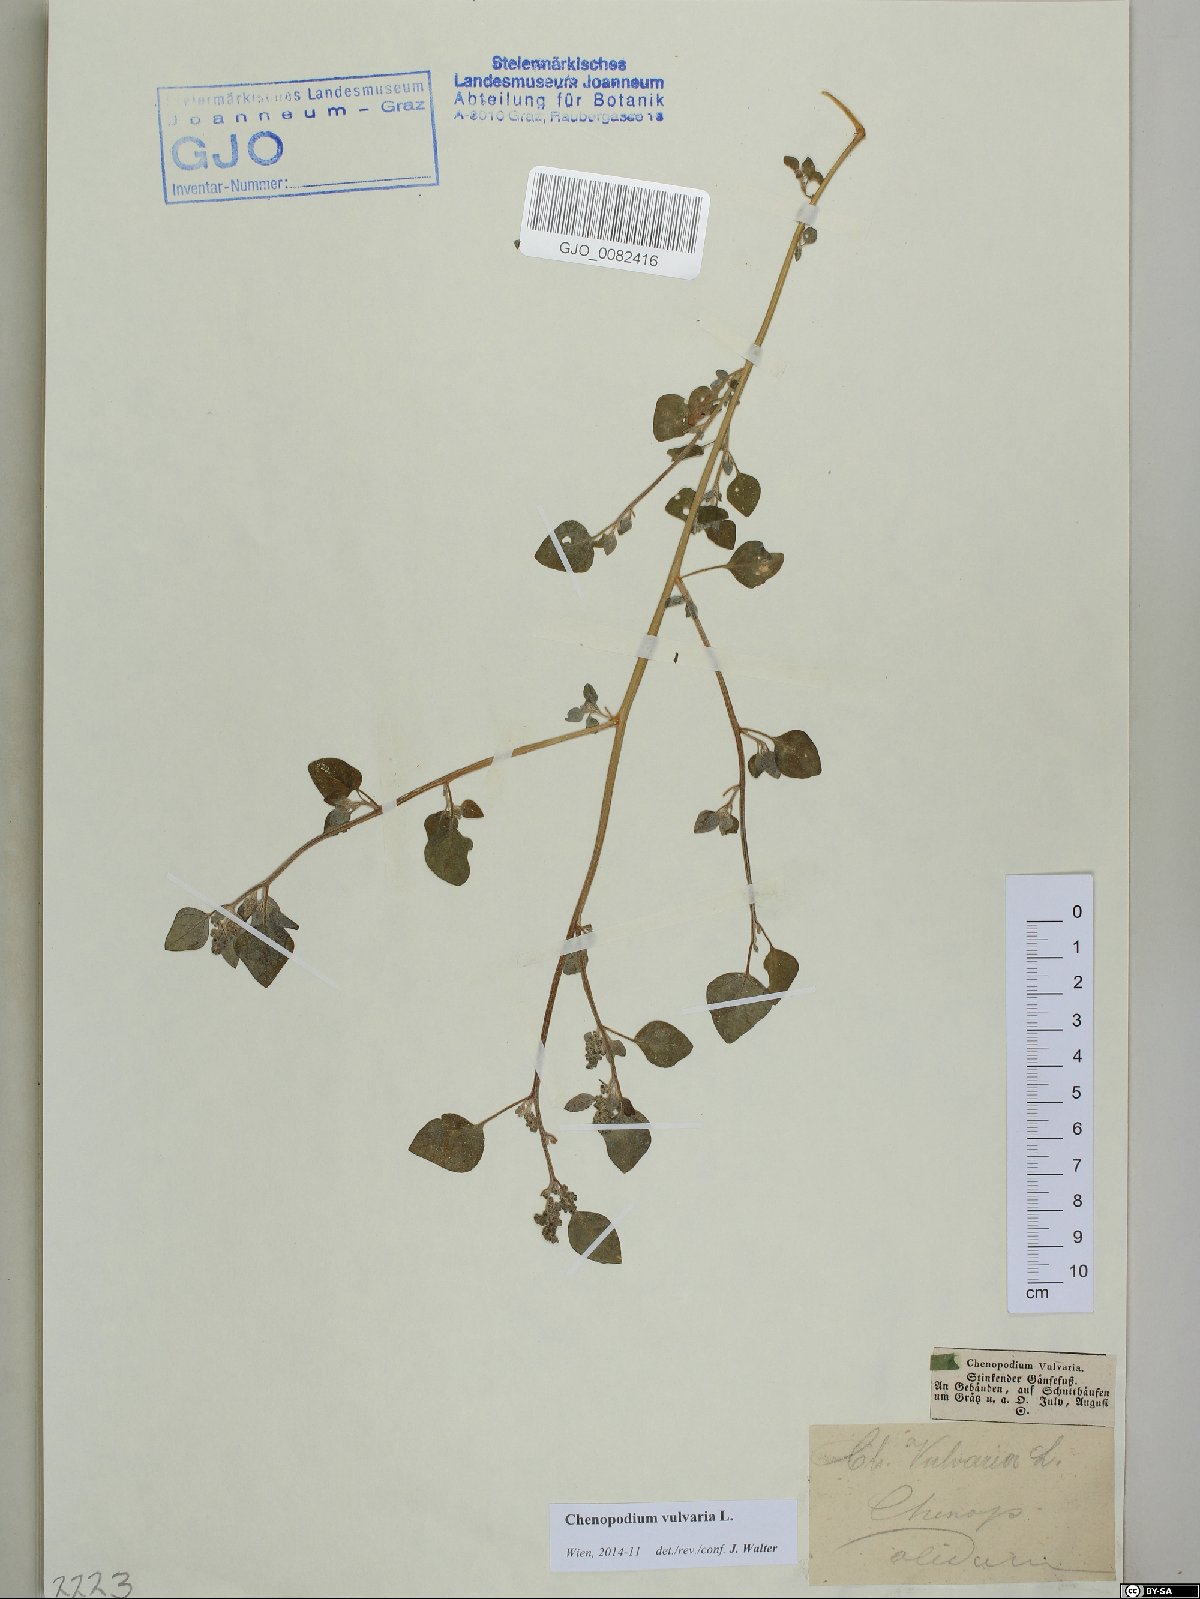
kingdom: Plantae
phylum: Tracheophyta
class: Magnoliopsida
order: Caryophyllales
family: Amaranthaceae
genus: Chenopodium
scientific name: Chenopodium vulvaria
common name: Stinking goosefoot
